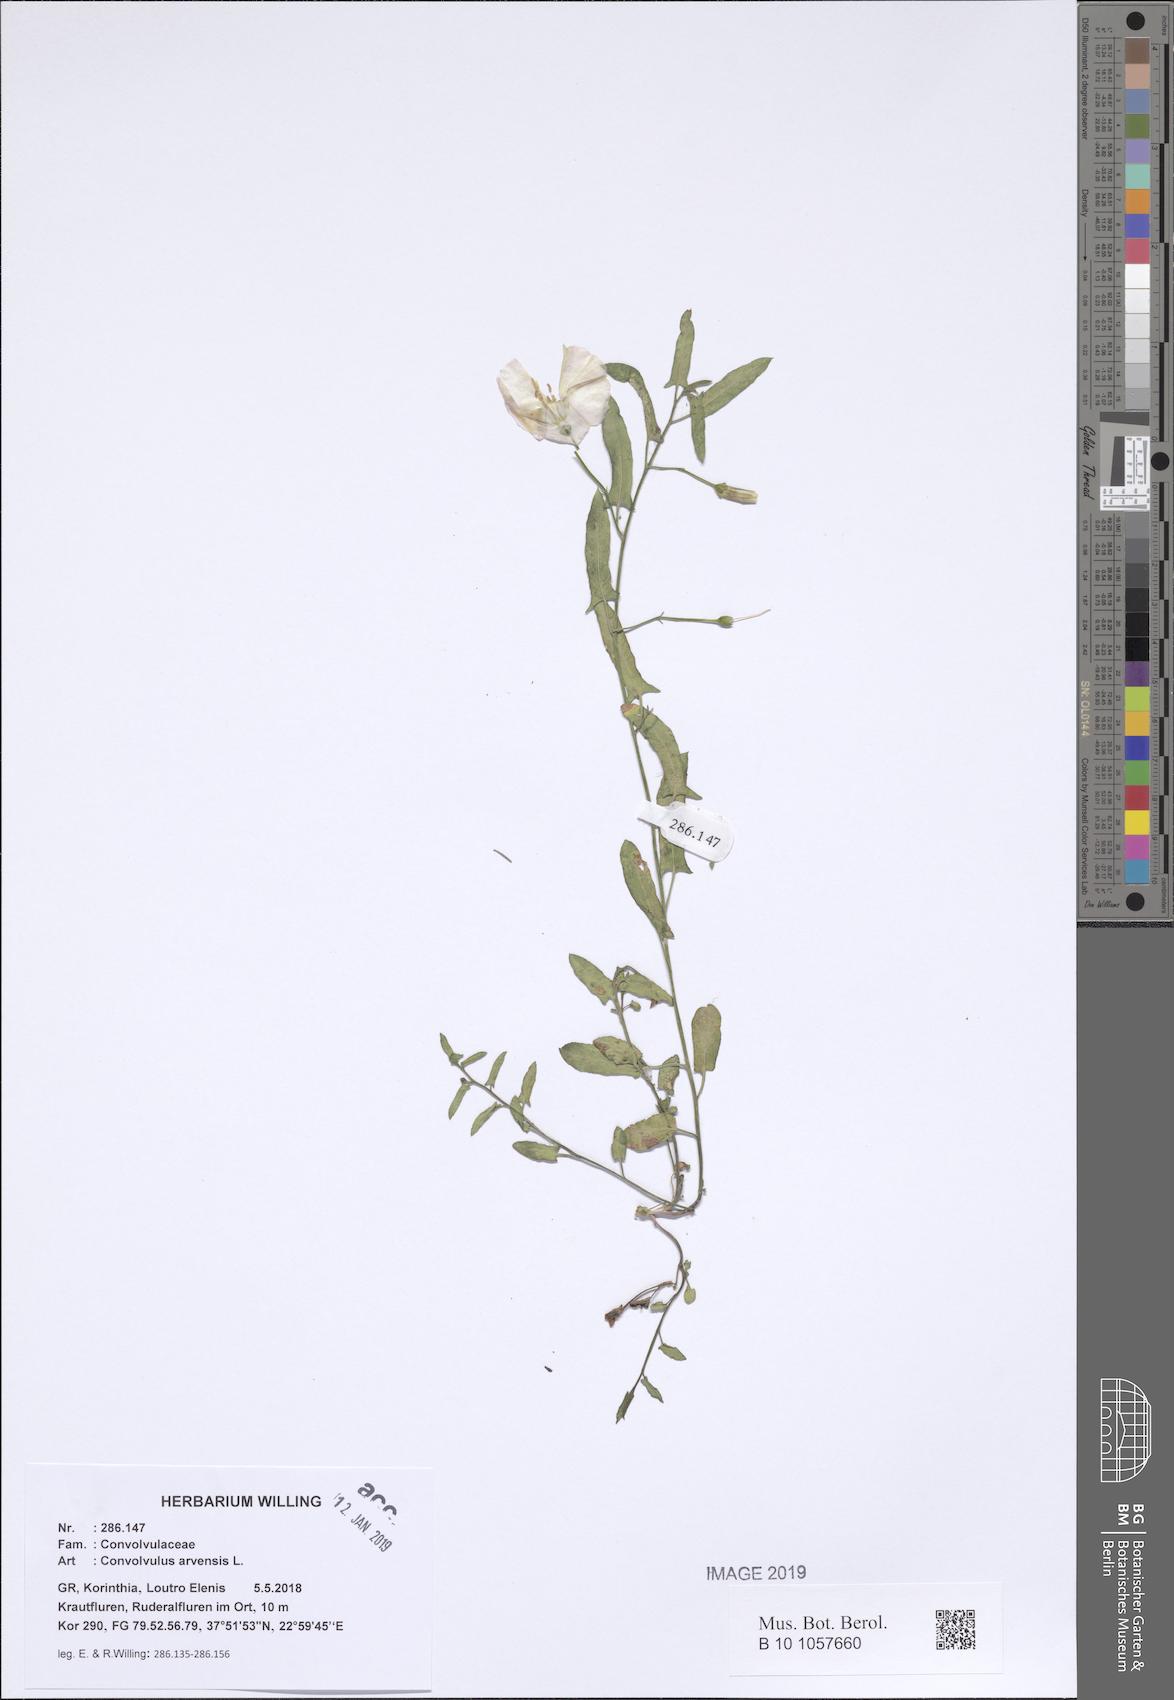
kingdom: Plantae
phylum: Tracheophyta
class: Magnoliopsida
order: Solanales
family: Convolvulaceae
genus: Convolvulus
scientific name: Convolvulus arvensis
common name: Field bindweed
